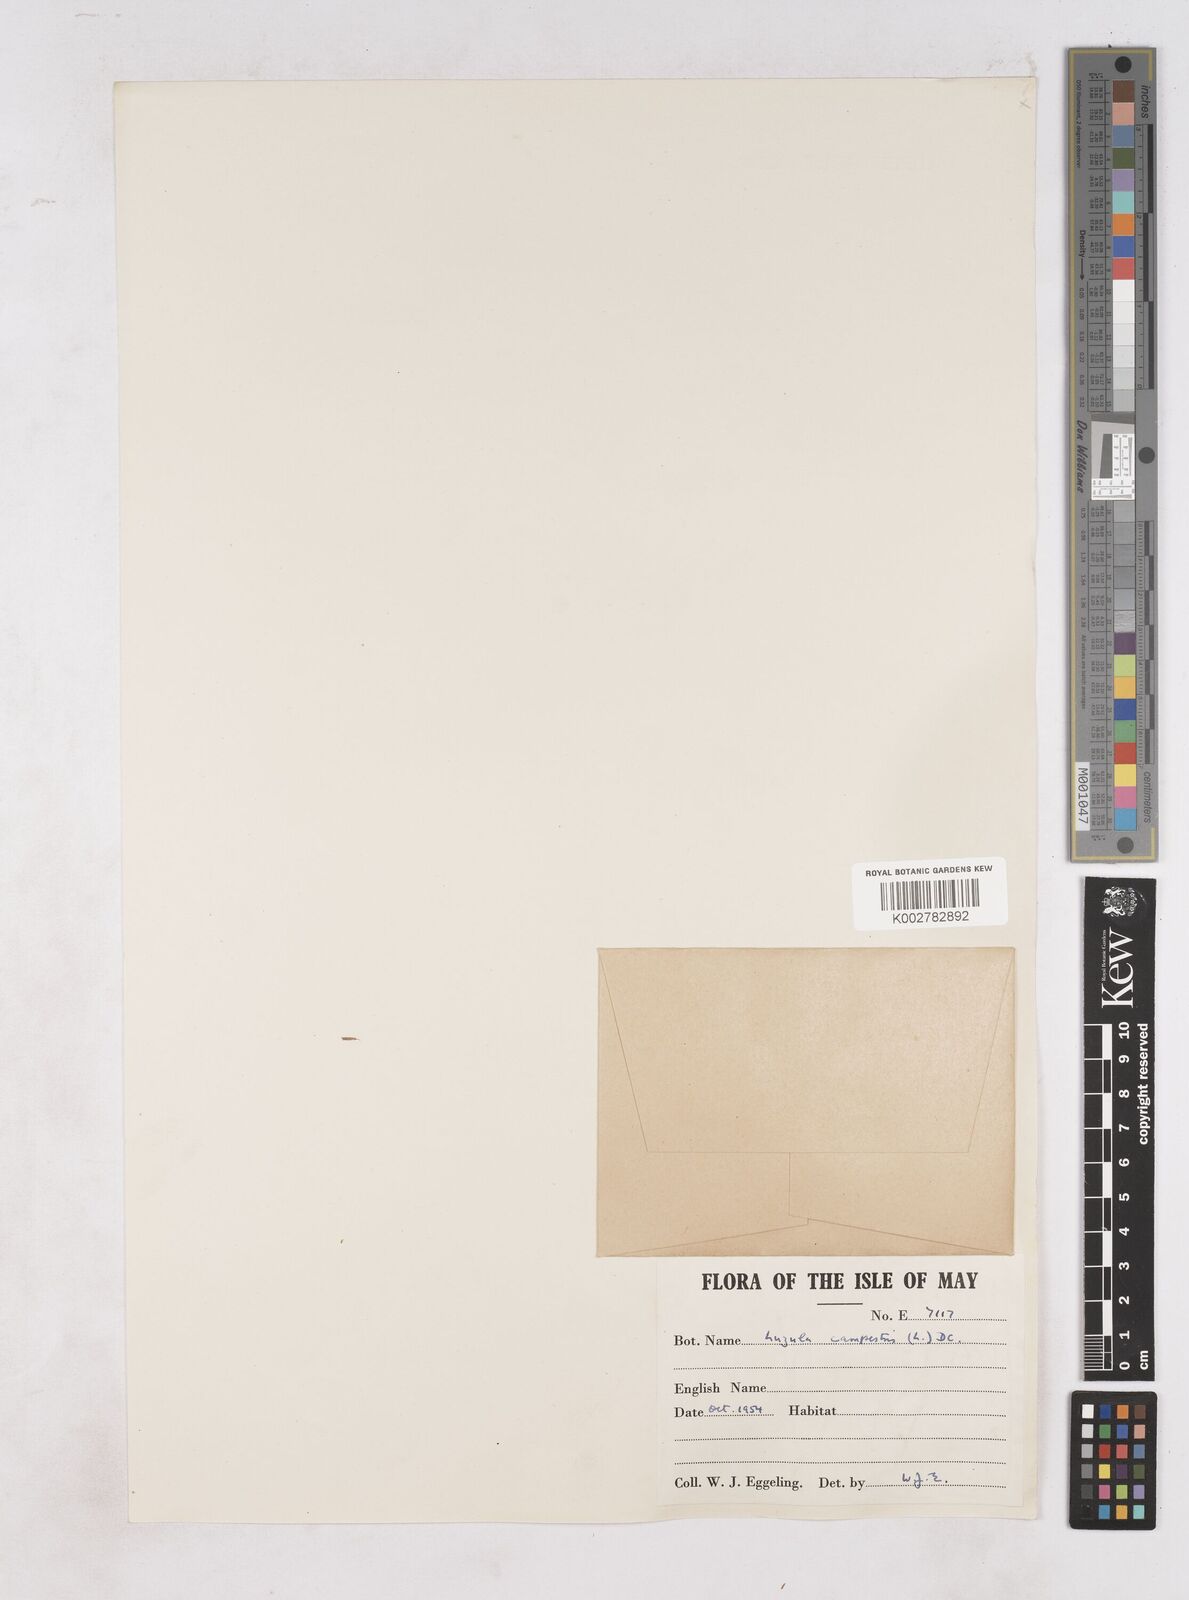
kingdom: Plantae
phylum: Tracheophyta
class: Liliopsida
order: Poales
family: Juncaceae
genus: Luzula
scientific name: Luzula campestris
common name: Field wood-rush
